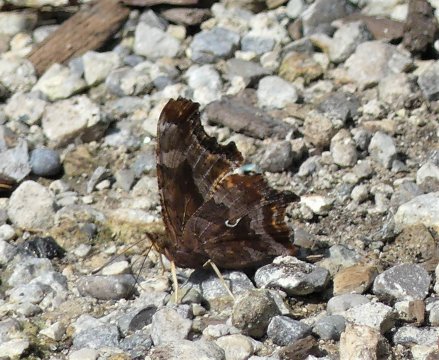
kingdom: Animalia
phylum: Arthropoda
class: Insecta
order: Lepidoptera
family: Nymphalidae
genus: Polygonia
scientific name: Polygonia comma
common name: Eastern Comma
